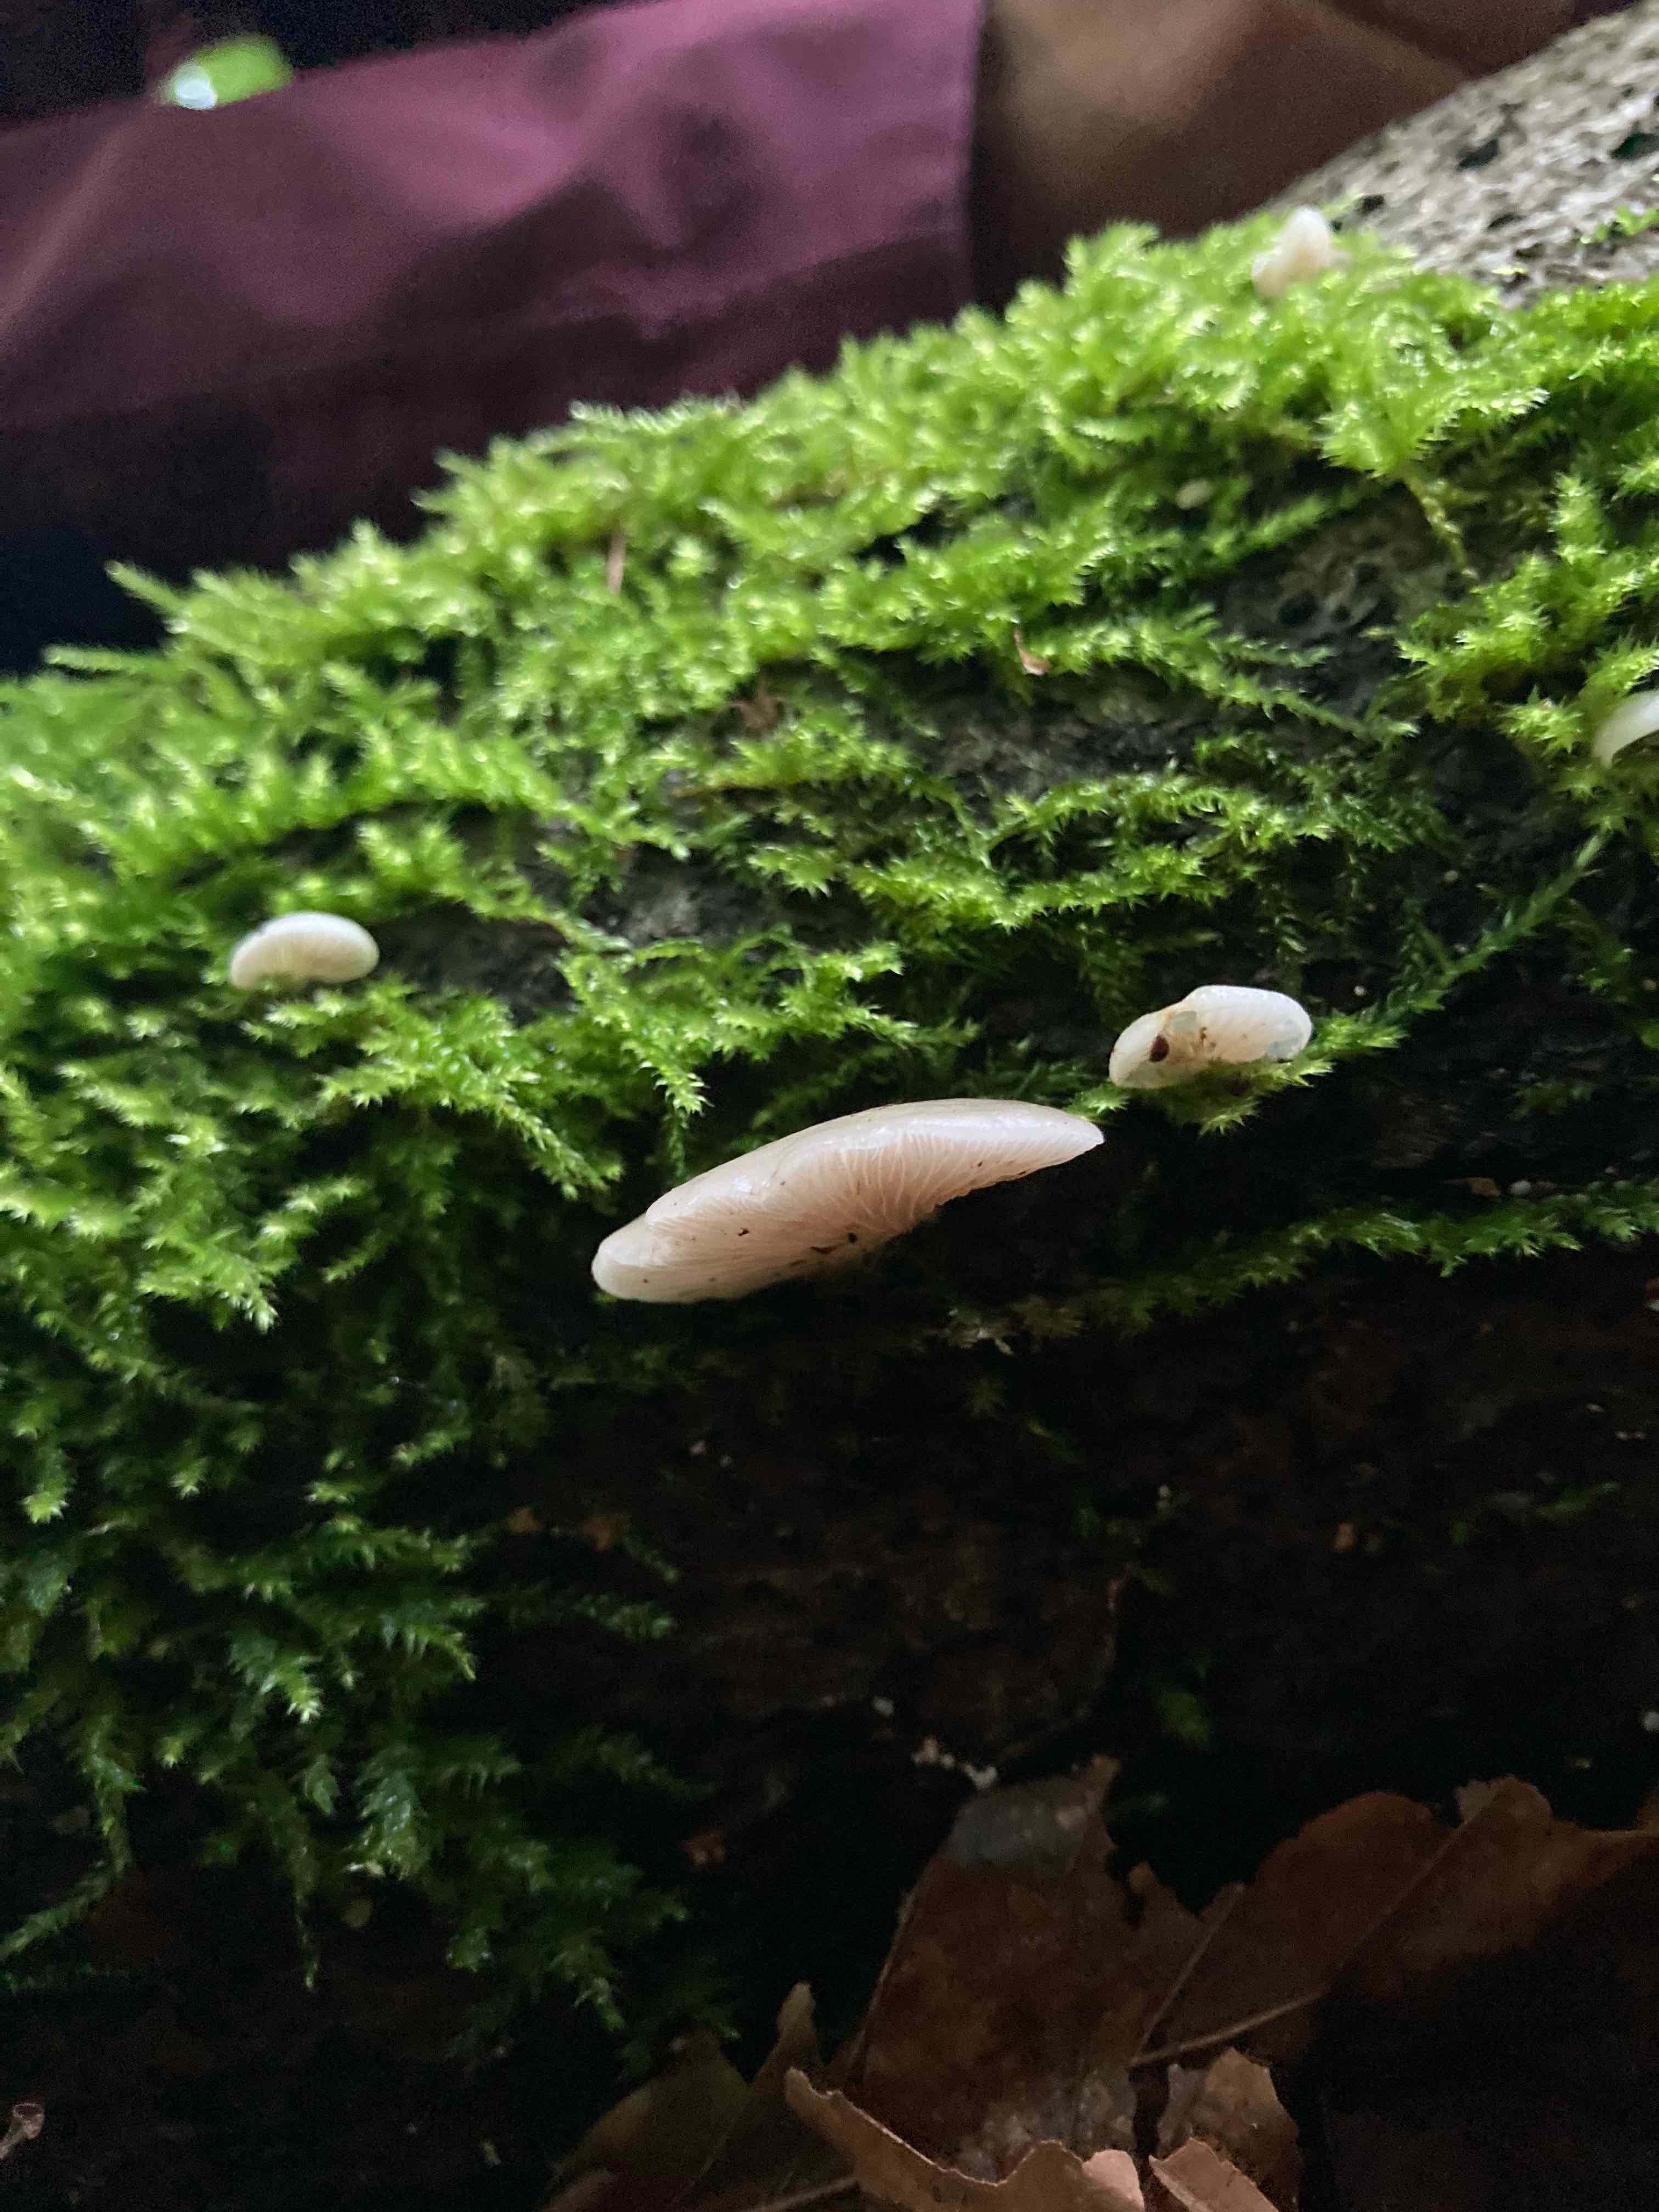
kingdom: Fungi
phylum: Basidiomycota
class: Agaricomycetes
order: Agaricales
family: Crepidotaceae
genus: Crepidotus
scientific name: Crepidotus mollis
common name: blød muslingesvamp
